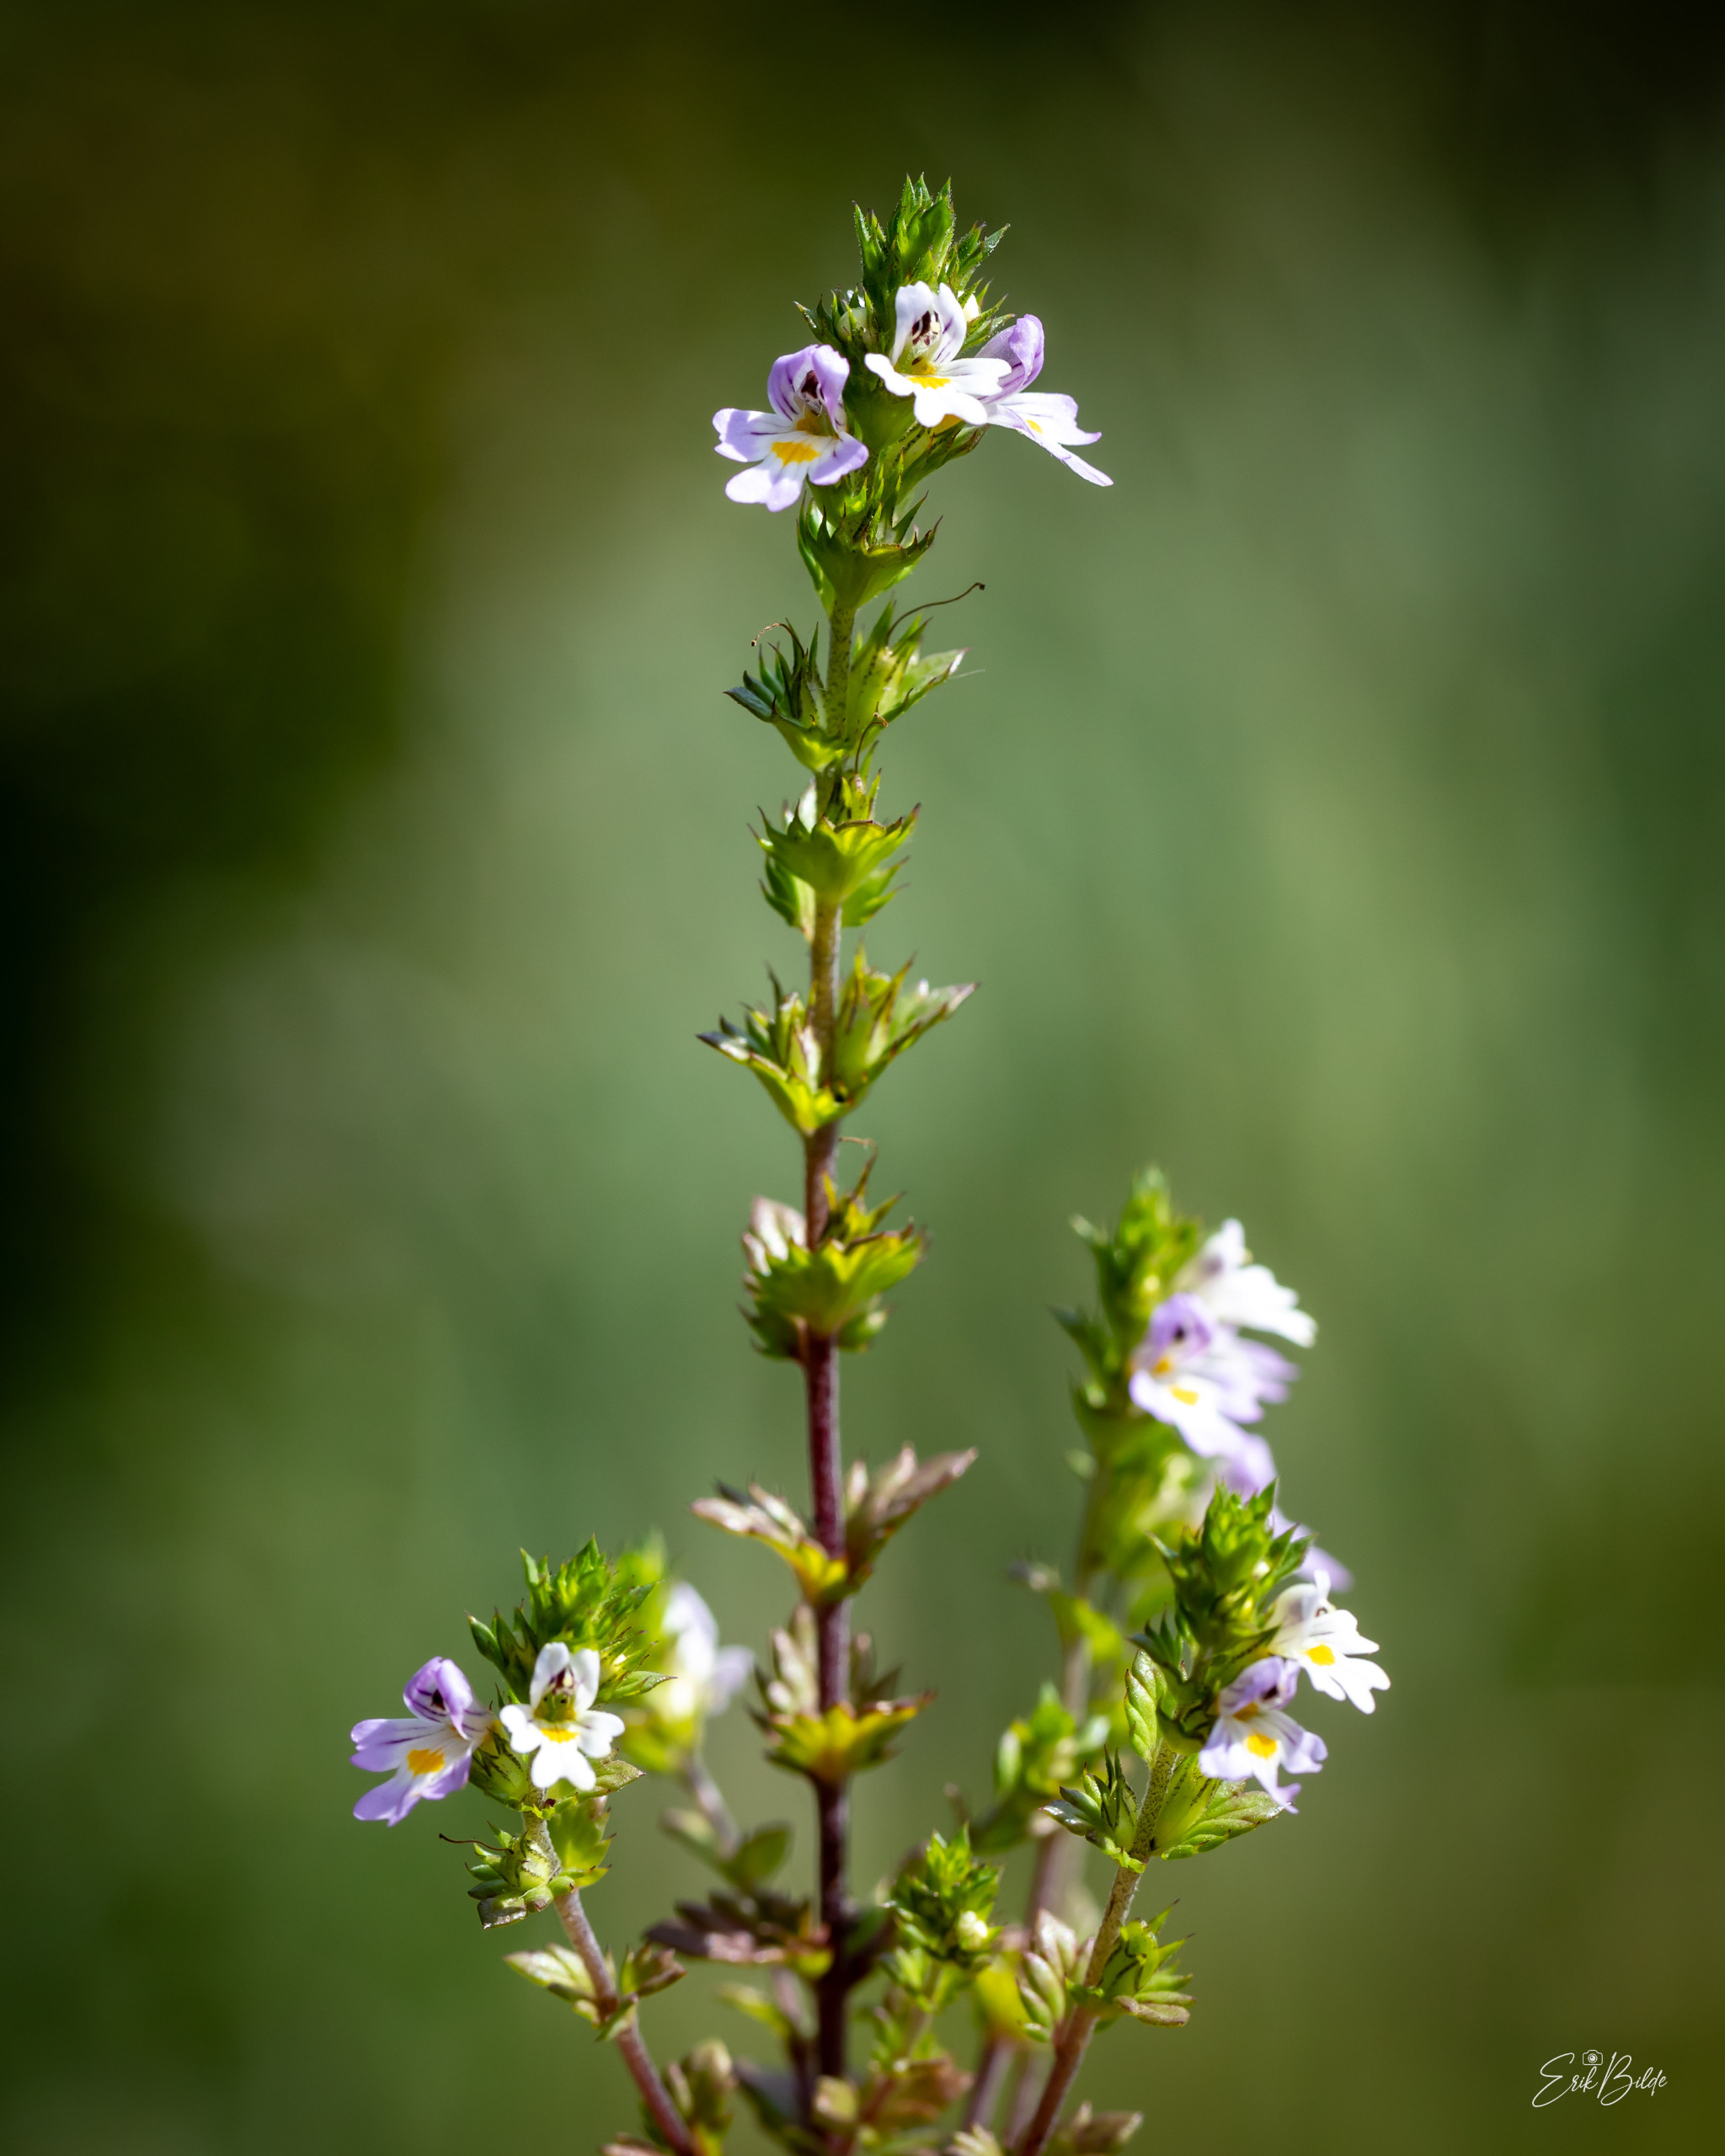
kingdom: Plantae
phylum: Tracheophyta
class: Magnoliopsida
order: Lamiales
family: Orobanchaceae
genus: Euphrasia
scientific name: Euphrasia stricta
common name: Spids øjentrøst
